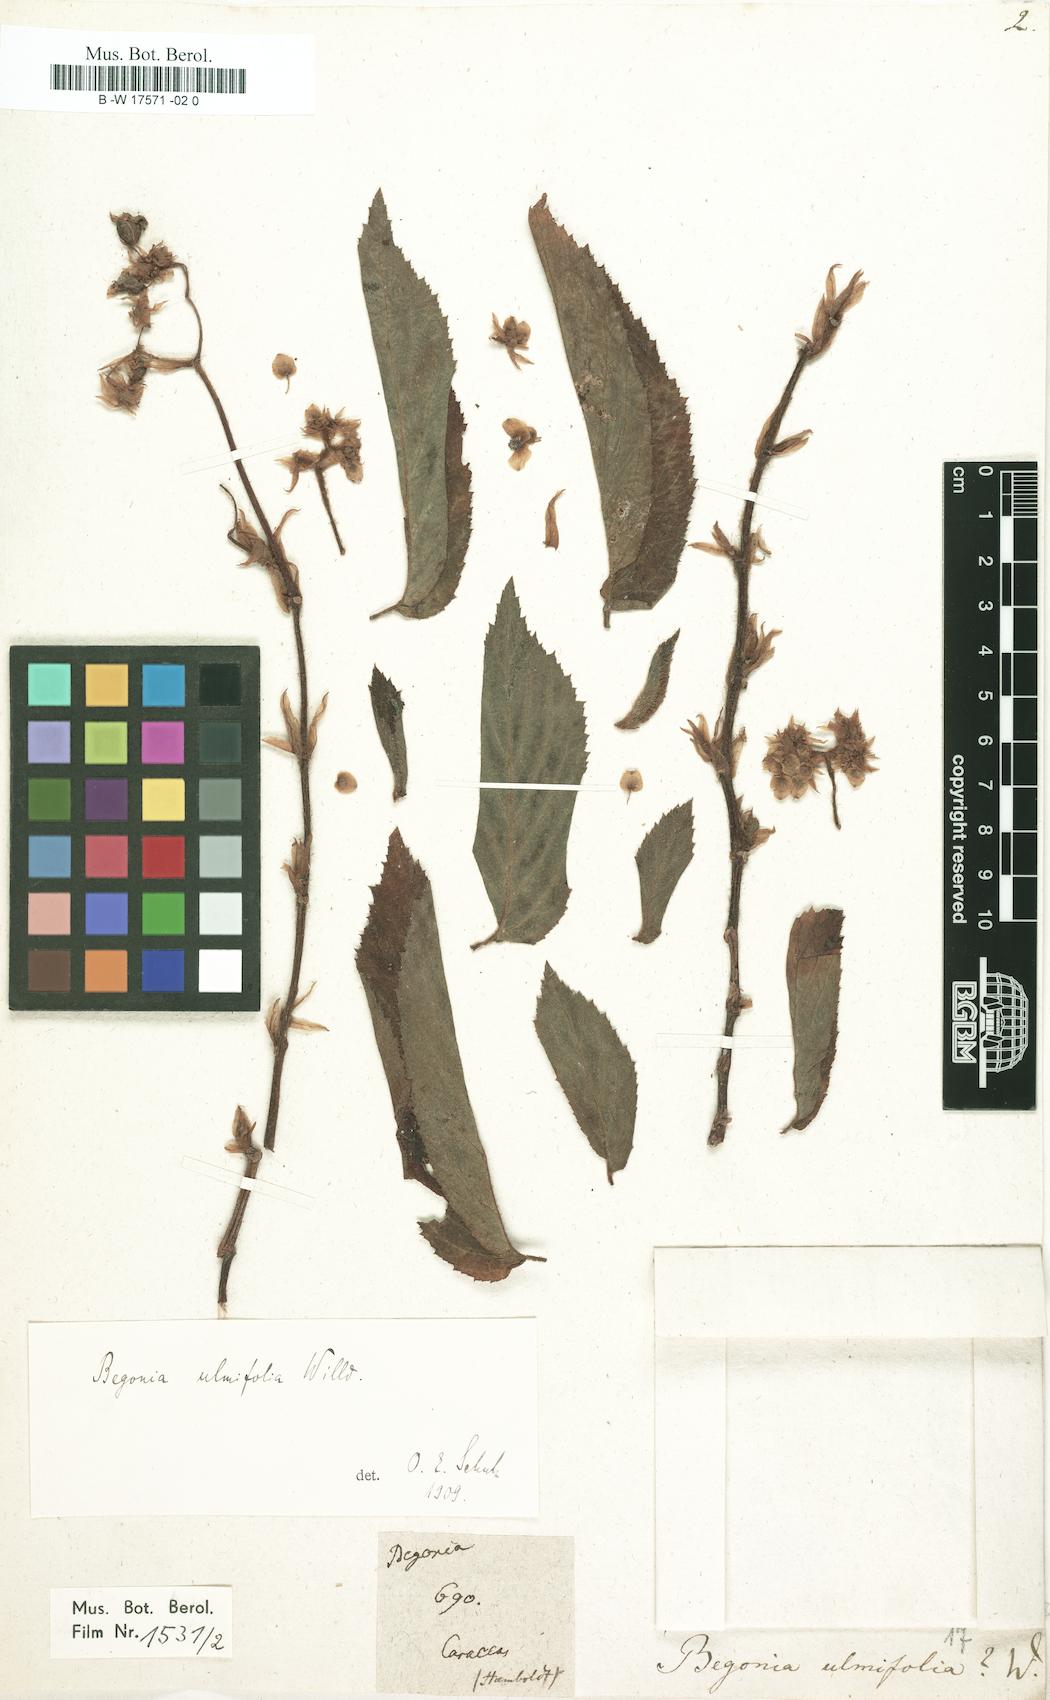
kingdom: Plantae
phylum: Tracheophyta
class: Magnoliopsida
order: Cucurbitales
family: Begoniaceae
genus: Begonia
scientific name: Begonia ulmifolia
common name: Elm-leaf begonia
